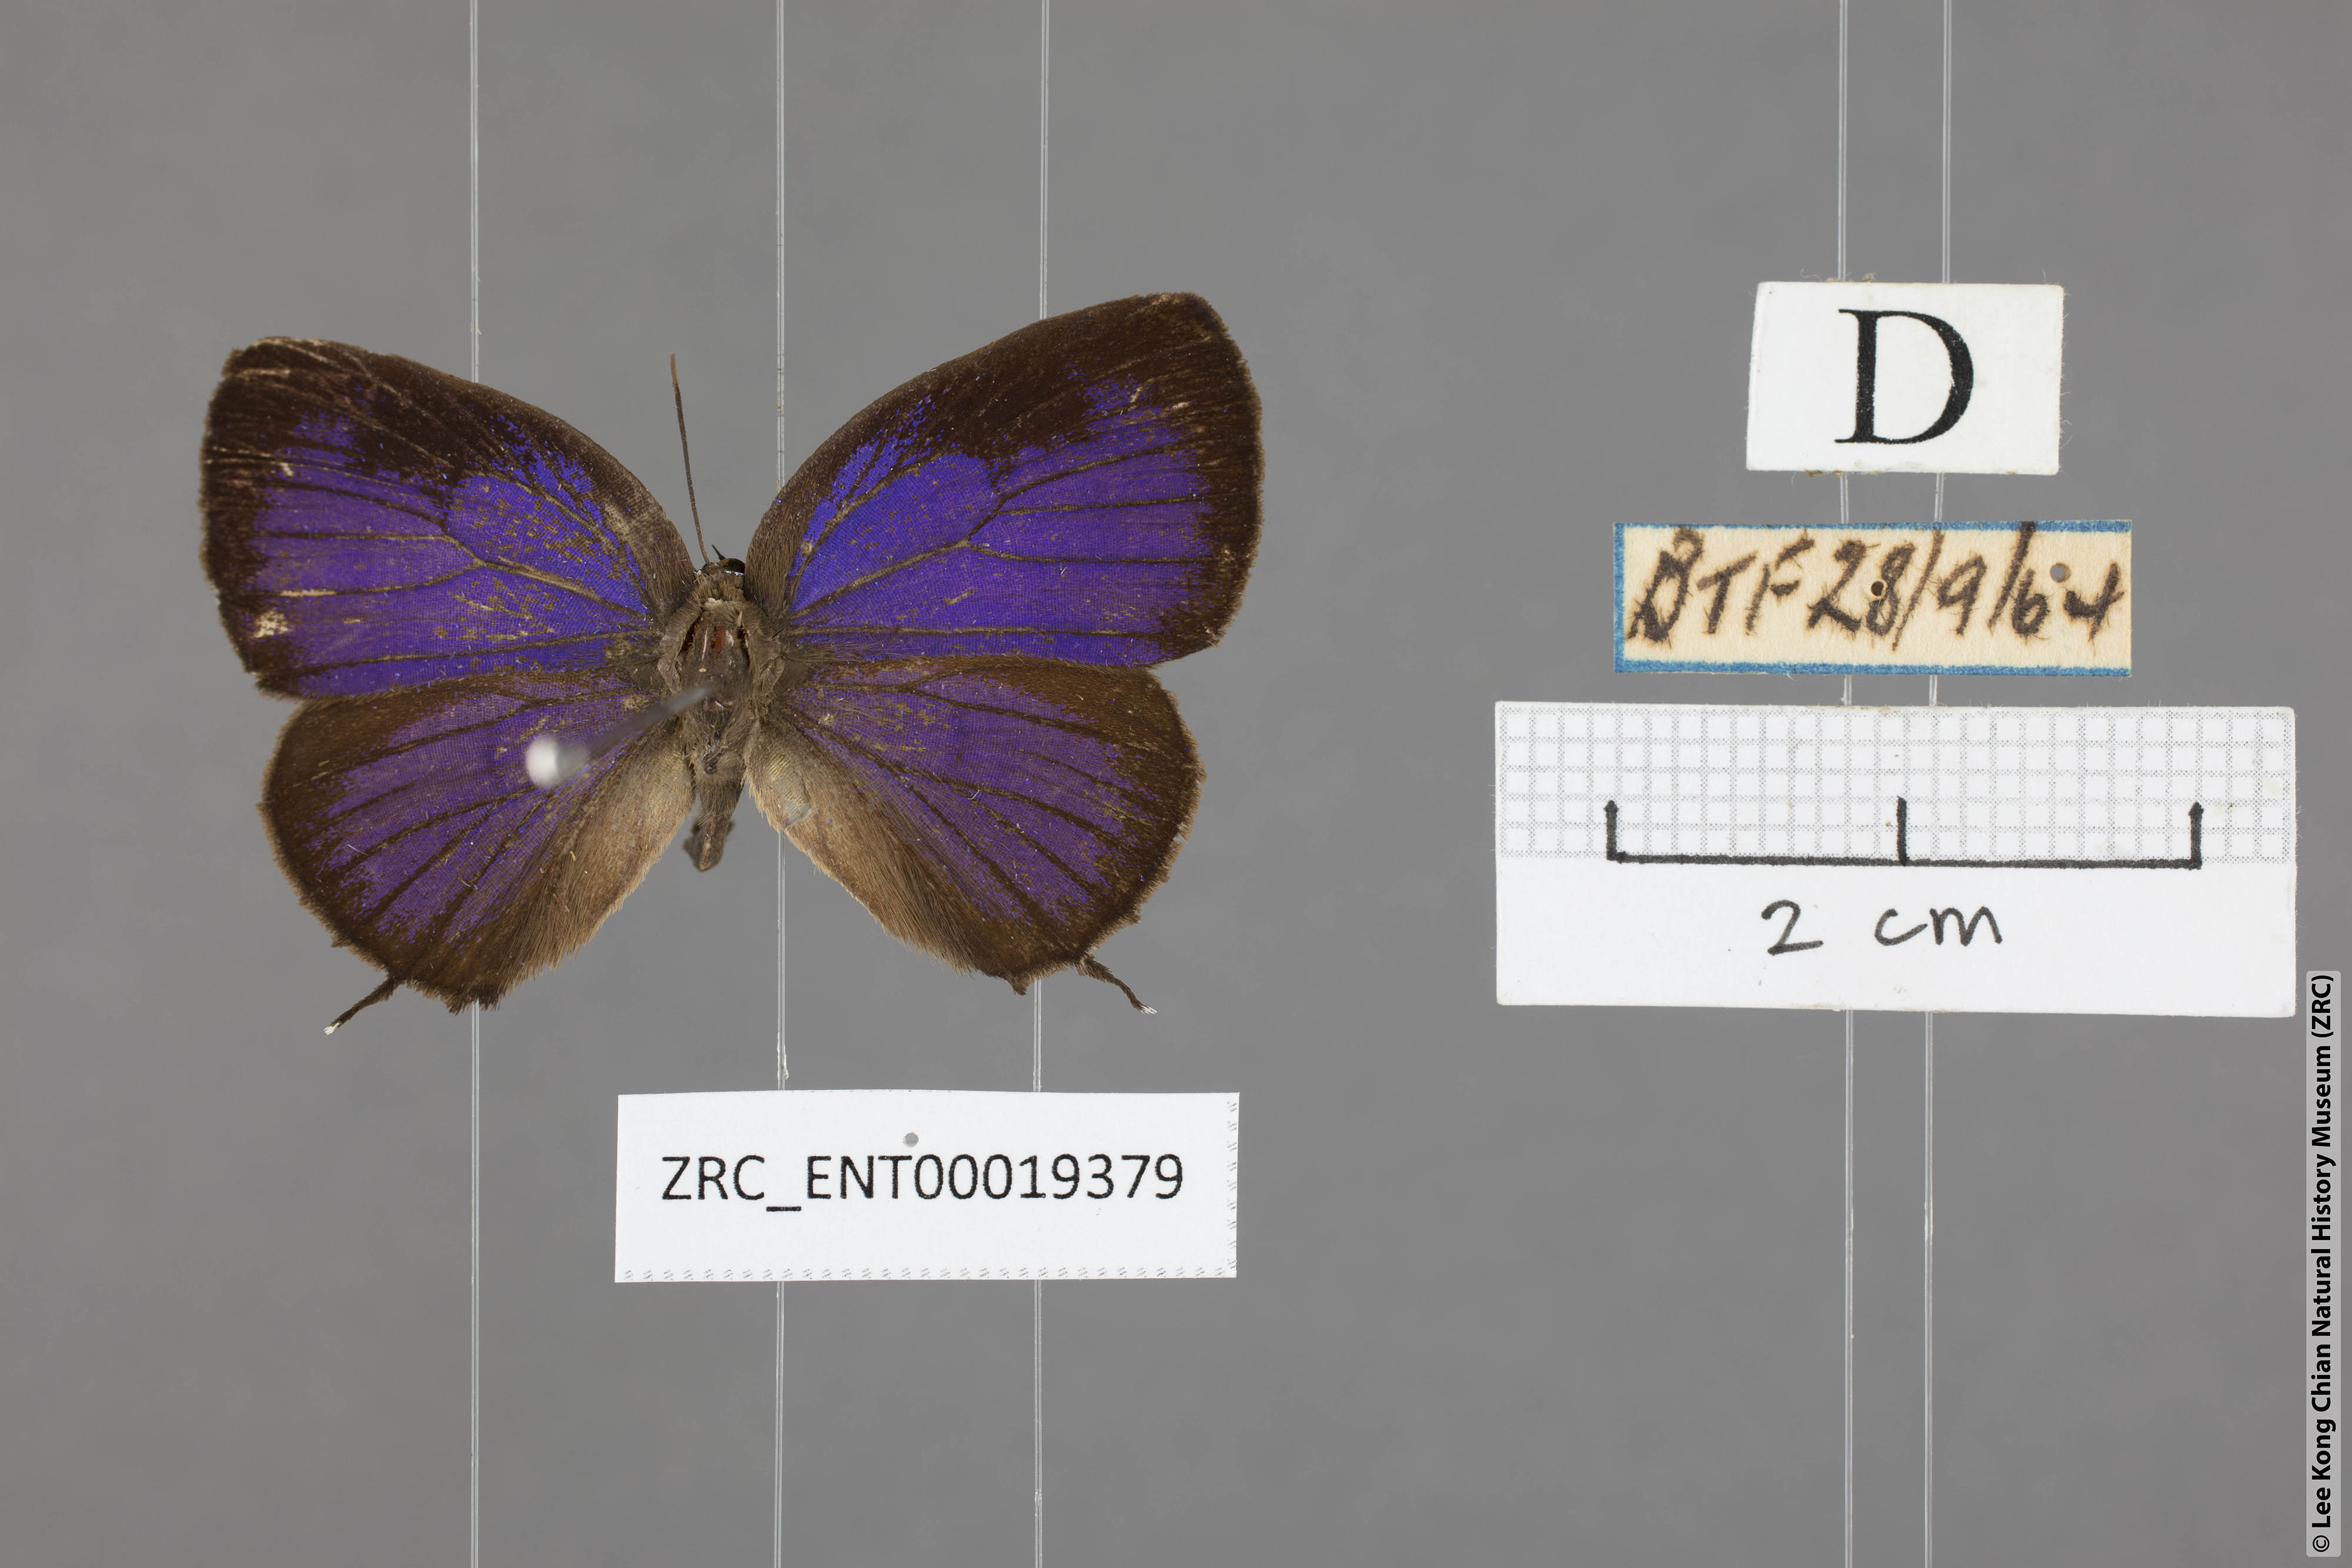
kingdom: Animalia
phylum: Arthropoda
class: Insecta
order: Lepidoptera
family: Lycaenidae
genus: Arhopala
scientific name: Arhopala delta
